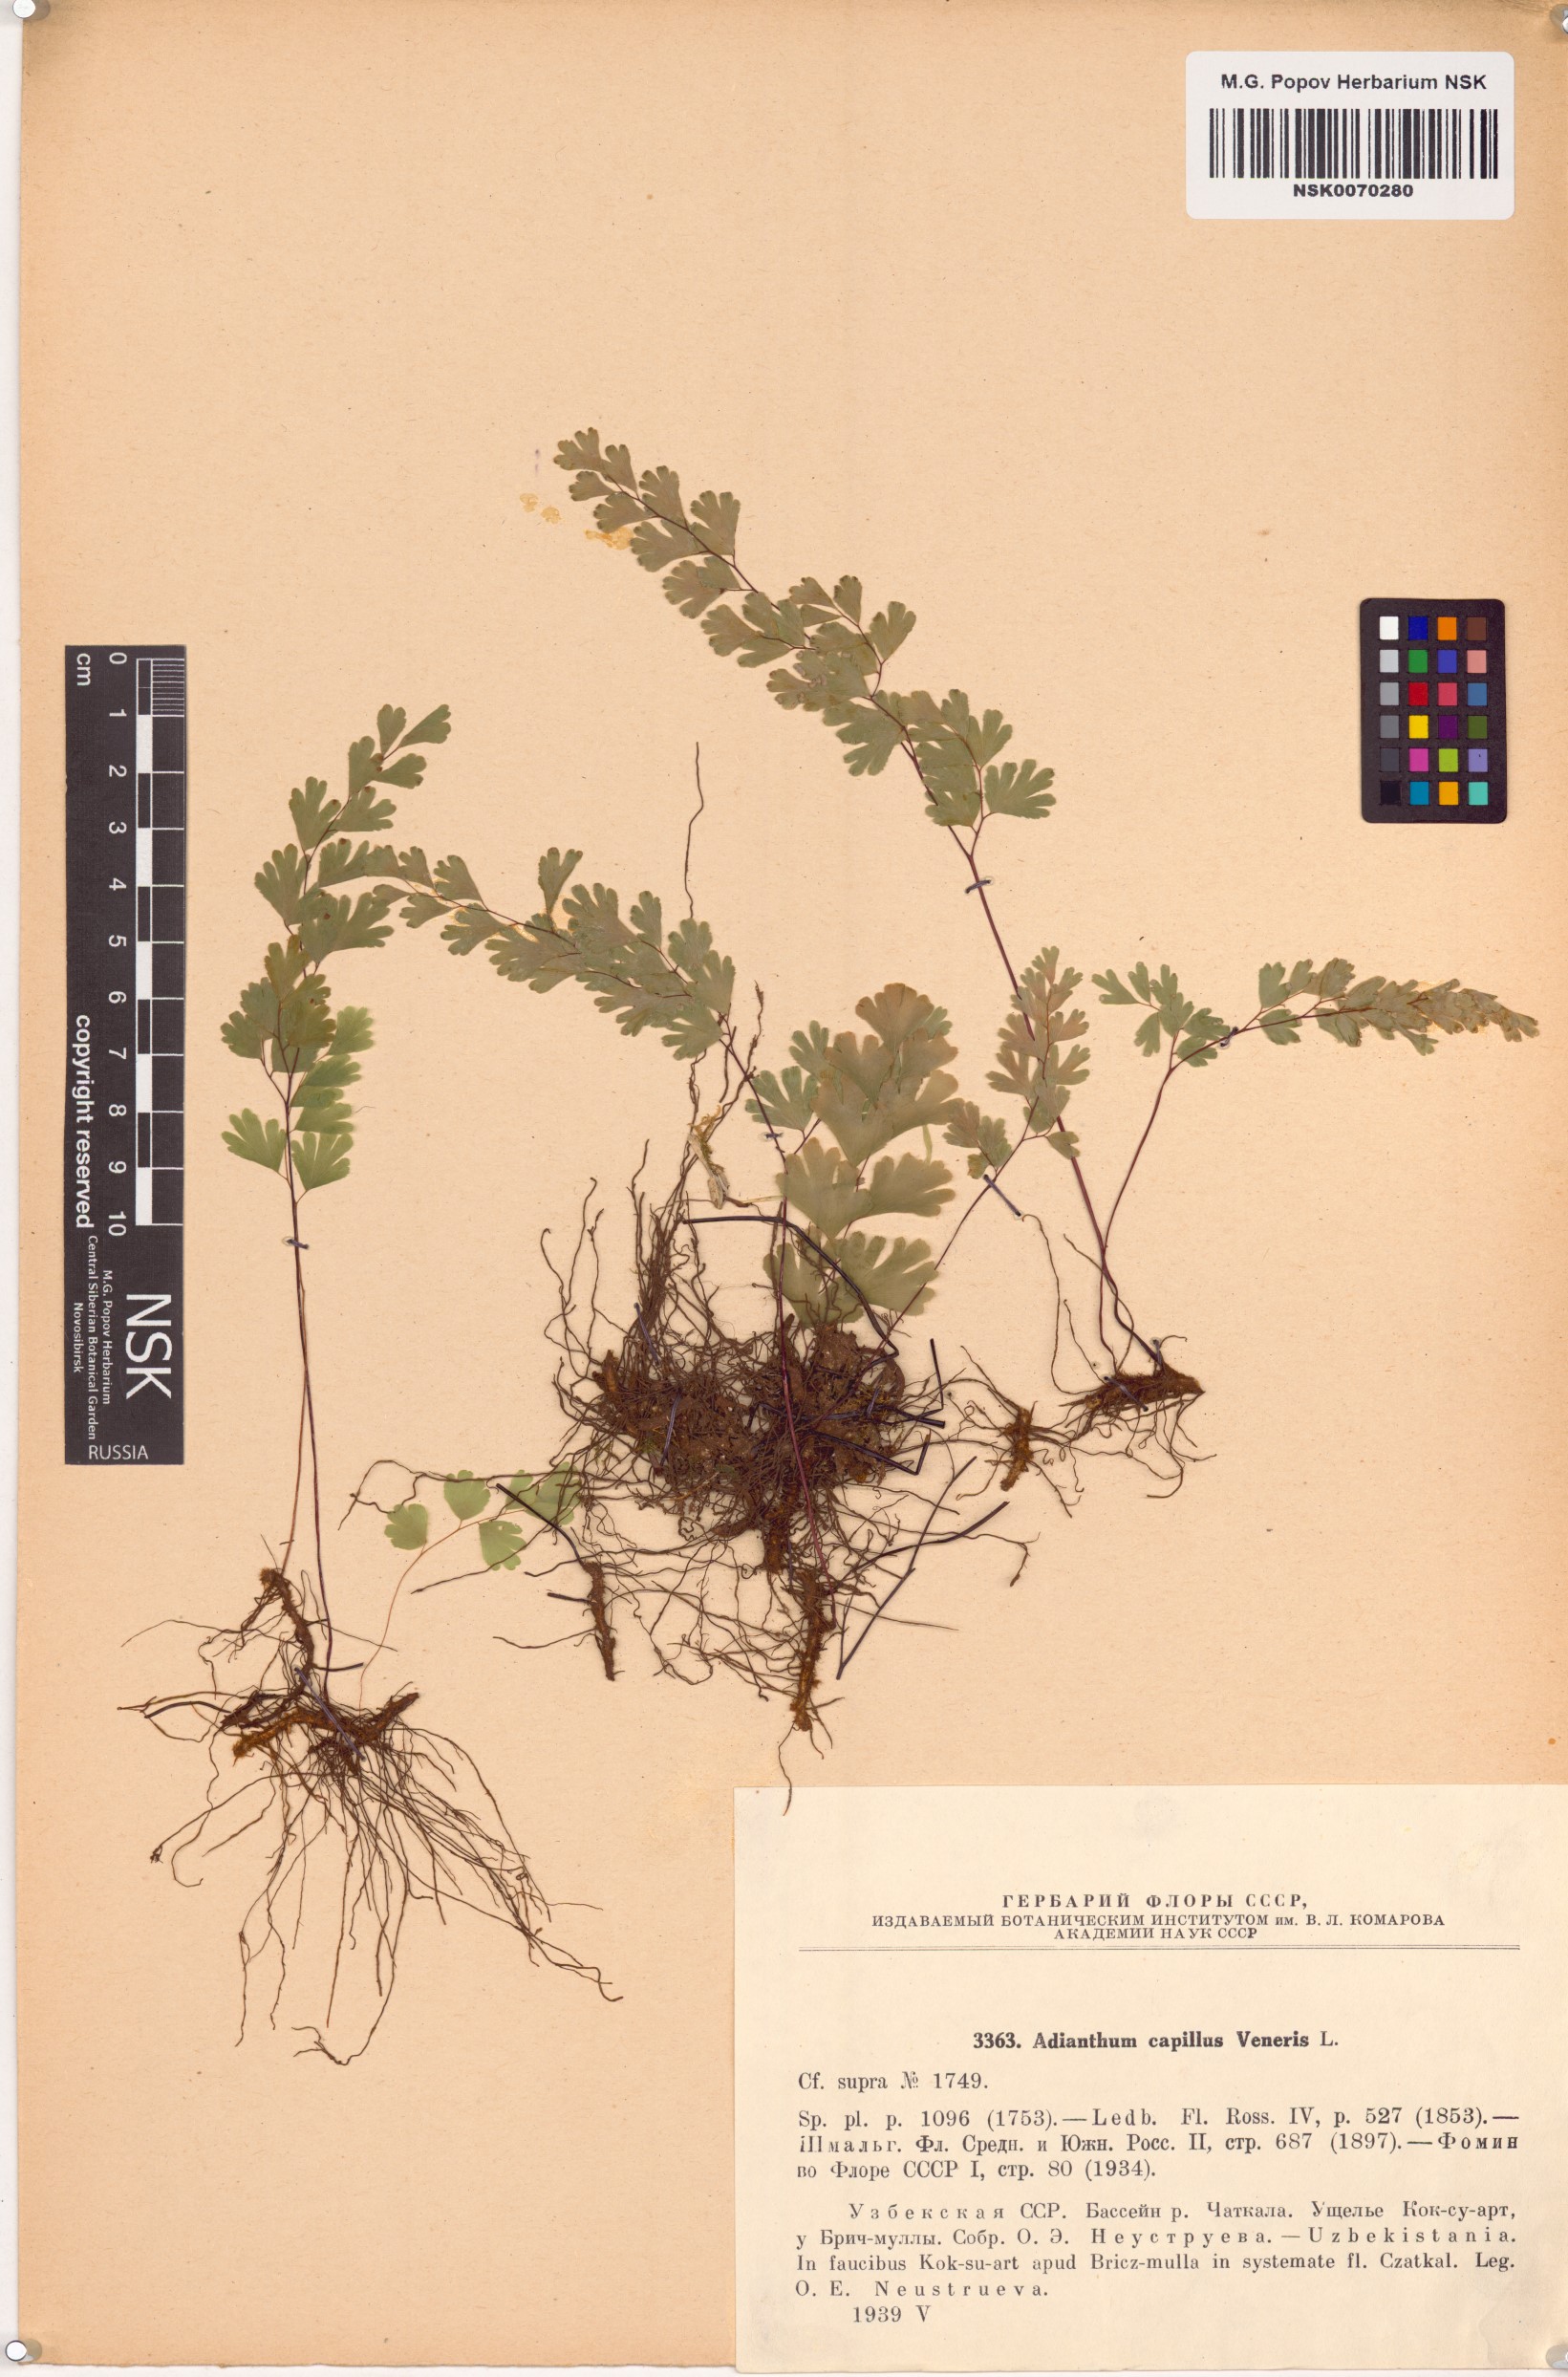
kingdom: Plantae
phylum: Tracheophyta
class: Polypodiopsida
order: Polypodiales
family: Pteridaceae
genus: Adiantum
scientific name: Adiantum capillus-veneris
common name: Maidenhair fern
